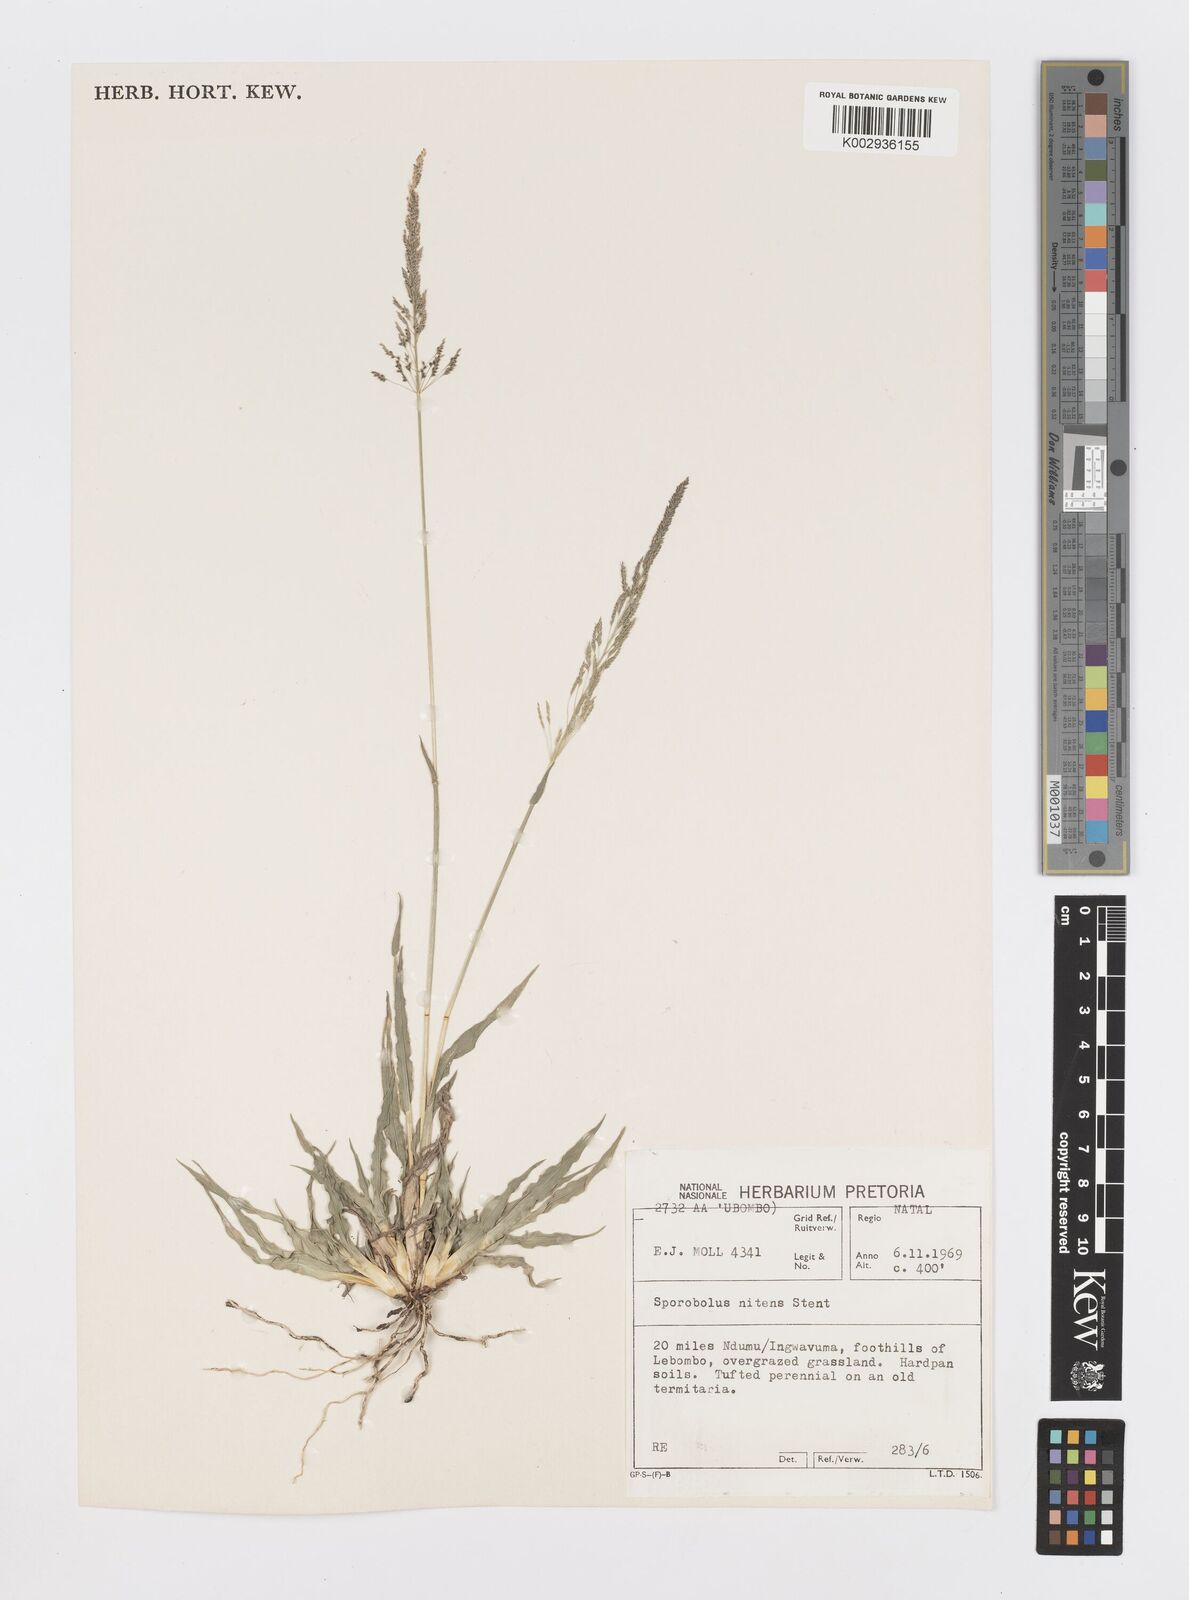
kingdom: Plantae
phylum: Tracheophyta
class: Liliopsida
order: Poales
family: Poaceae
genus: Sporobolus
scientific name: Sporobolus nitens
